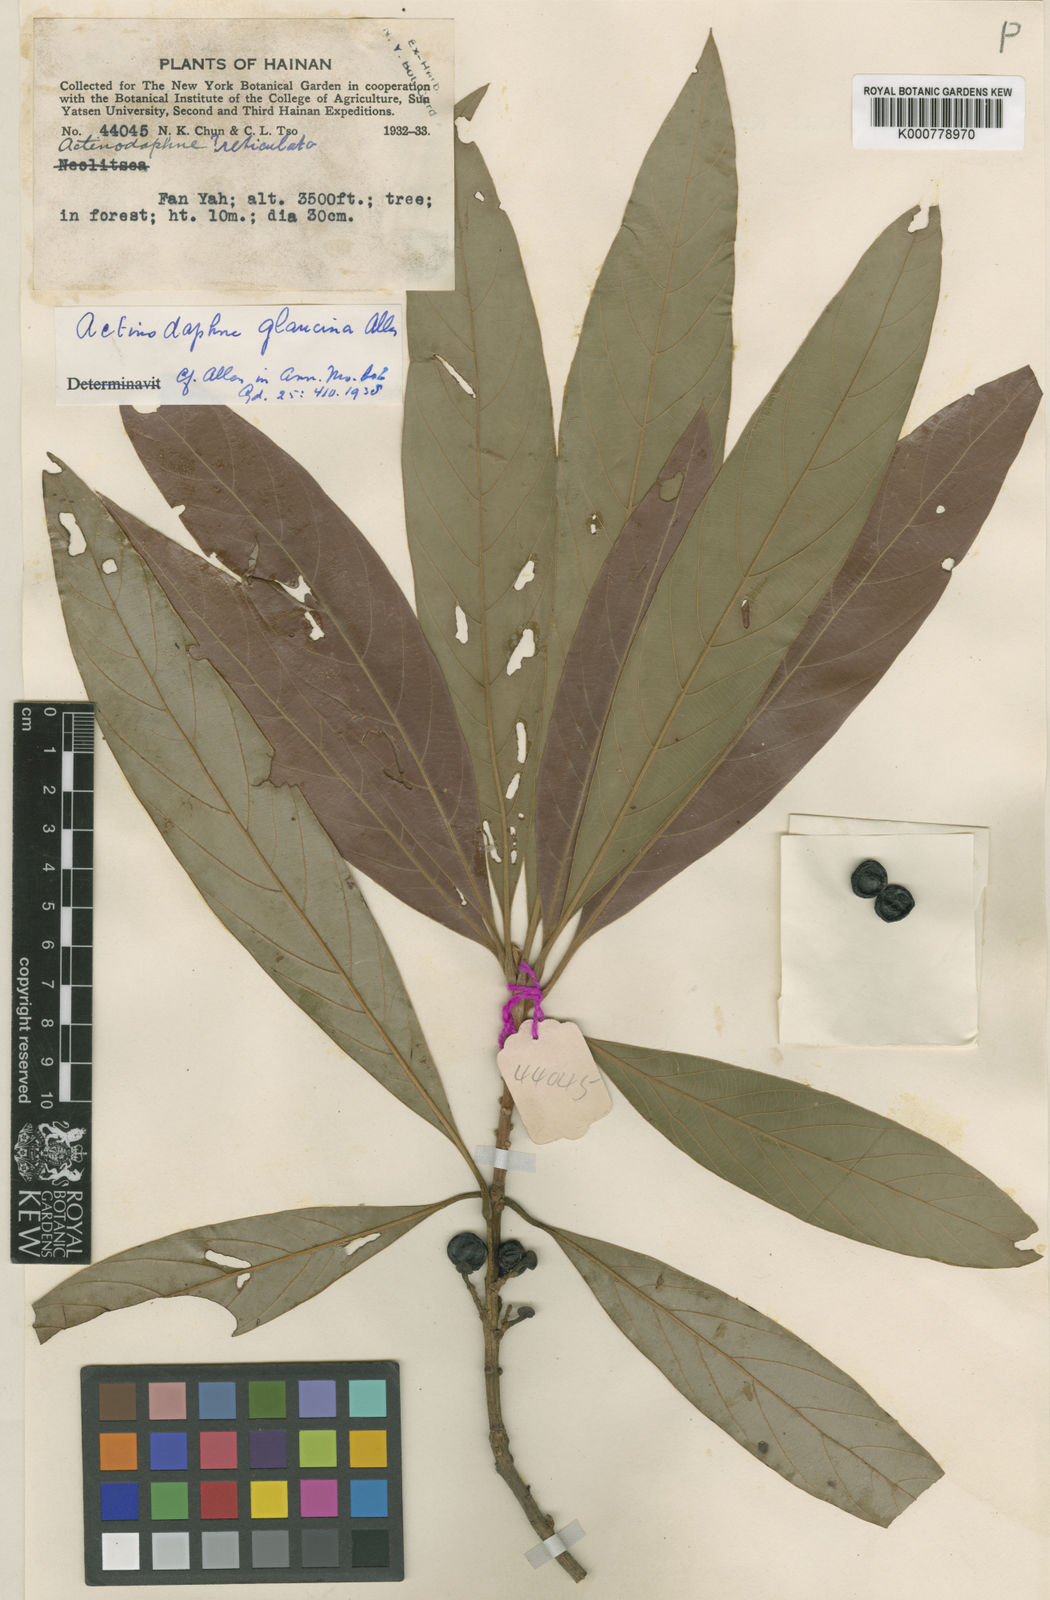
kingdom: Plantae
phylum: Tracheophyta
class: Magnoliopsida
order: Laurales
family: Lauraceae
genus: Actinodaphne
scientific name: Actinodaphne glaucina
